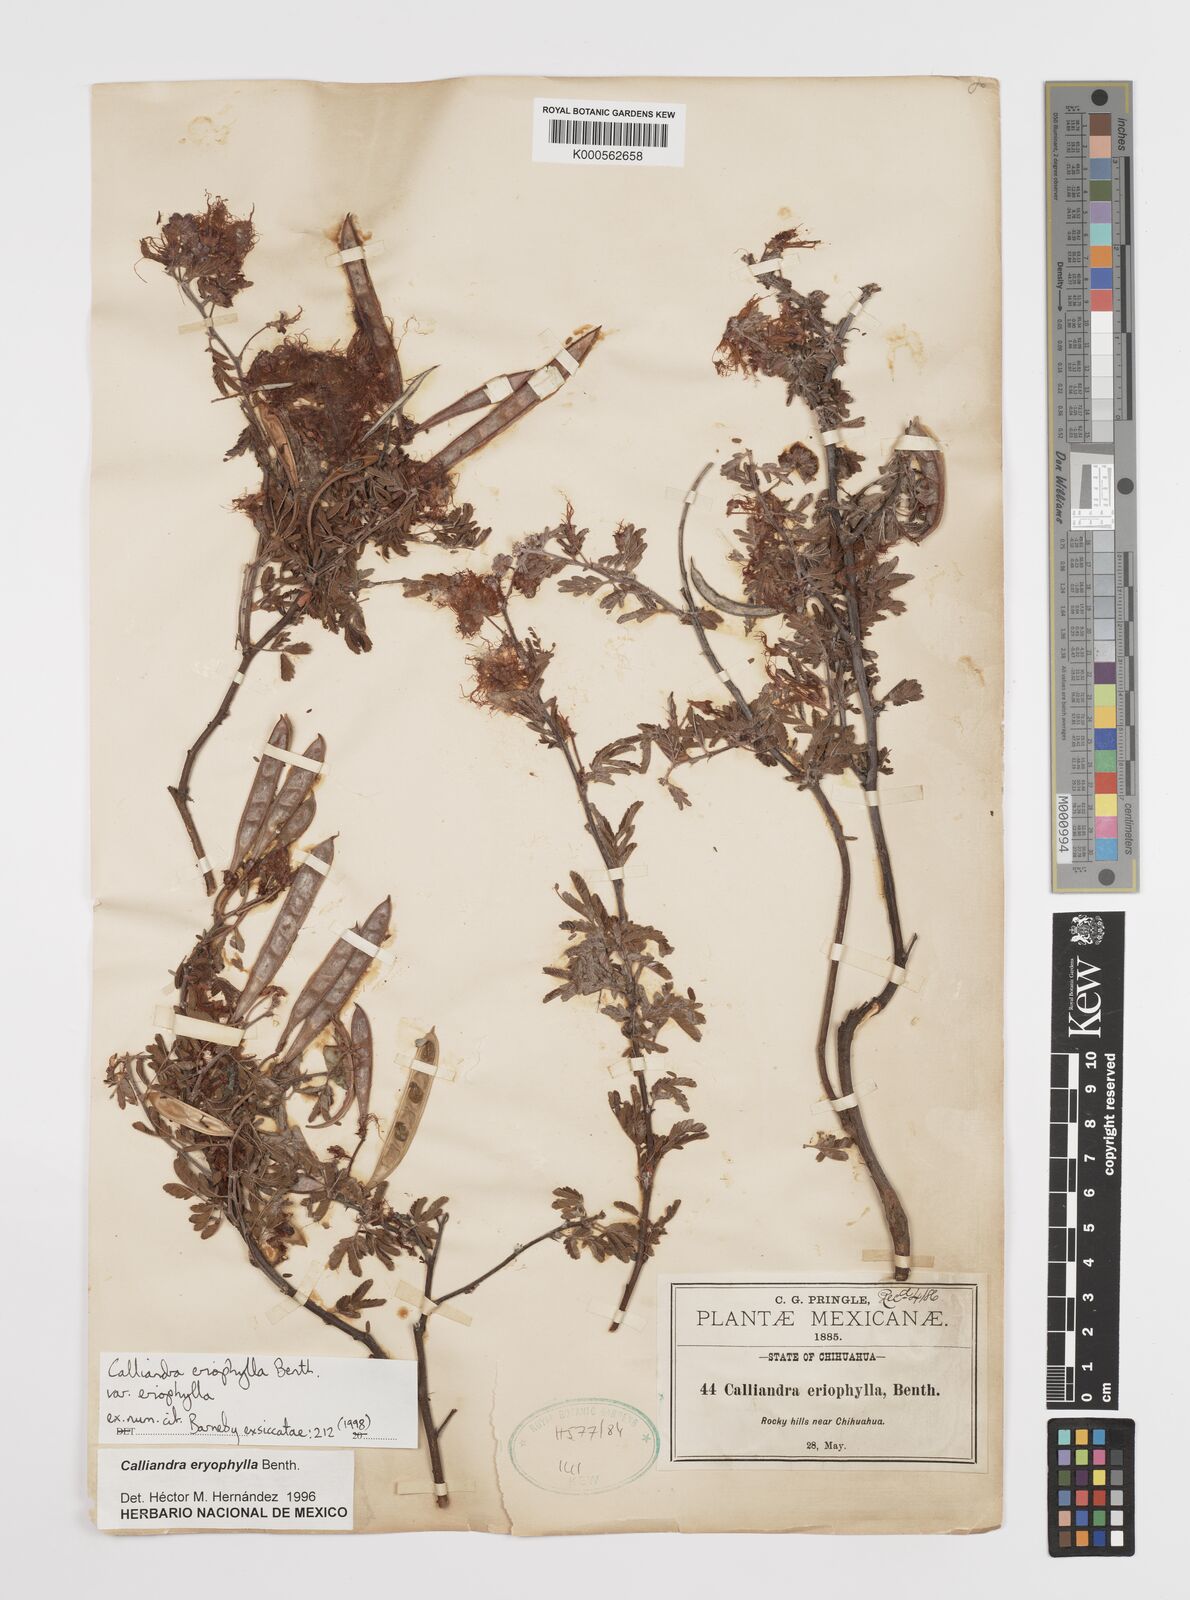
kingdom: Plantae
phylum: Tracheophyta
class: Magnoliopsida
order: Fabales
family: Fabaceae
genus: Calliandra
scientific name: Calliandra eriophylla
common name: Fairy-duster
